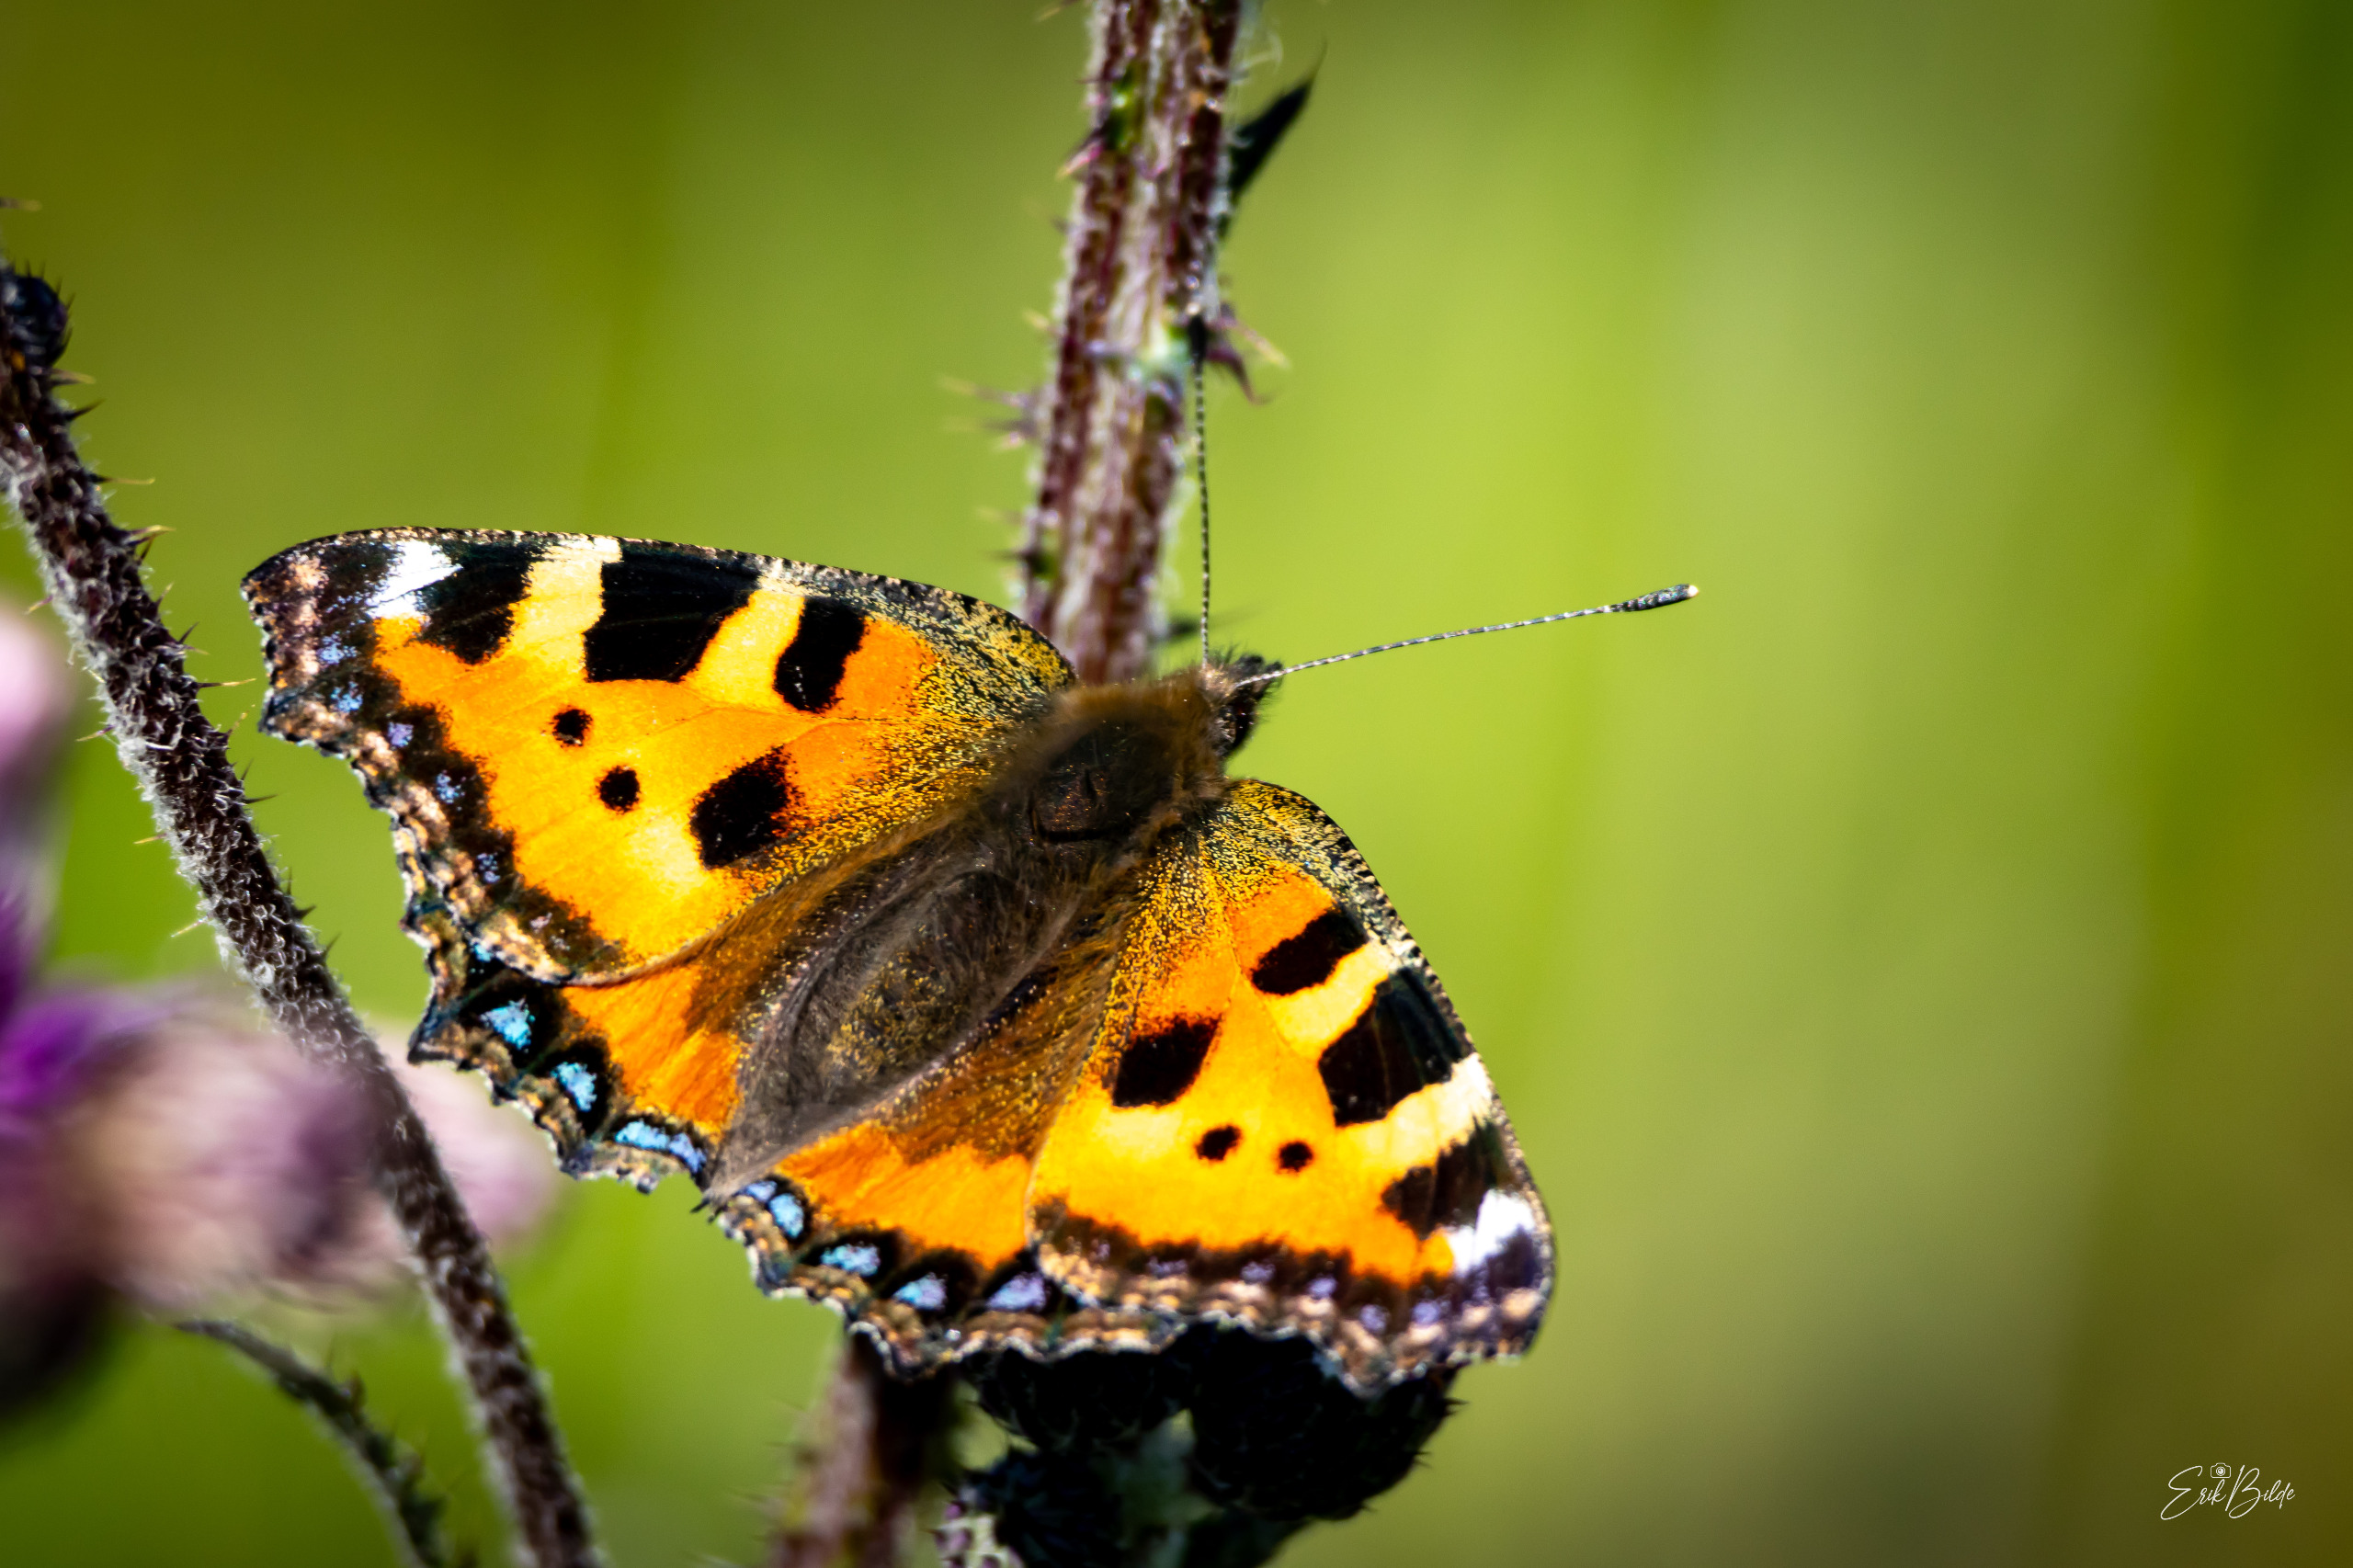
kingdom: Animalia
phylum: Arthropoda
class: Insecta
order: Lepidoptera
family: Nymphalidae
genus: Aglais
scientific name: Aglais urticae
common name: Nældens takvinge
